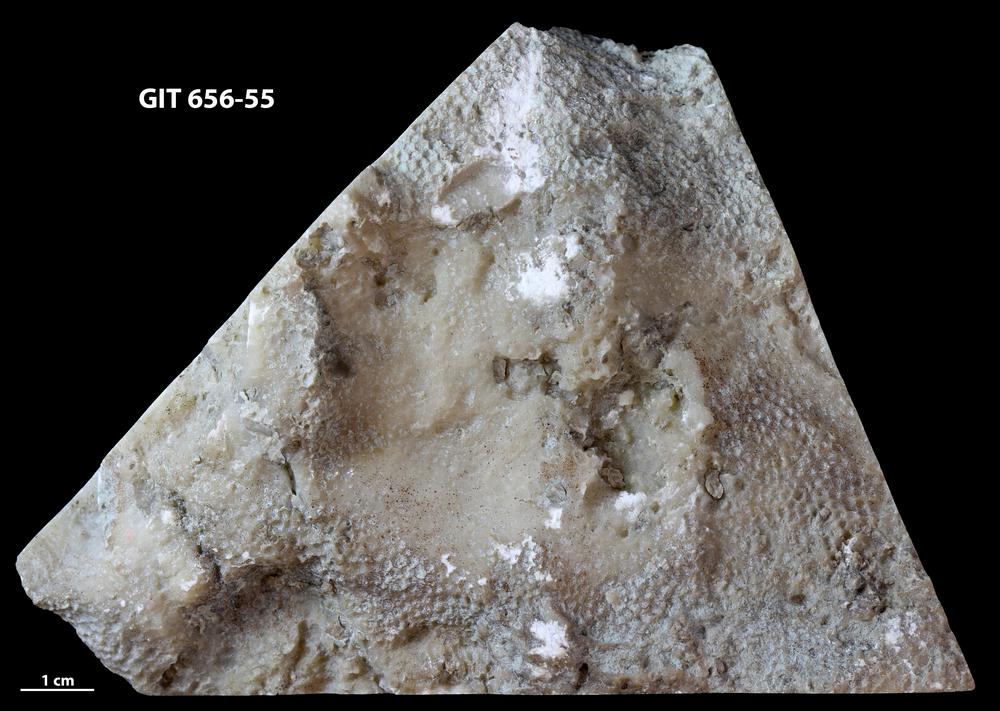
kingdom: Animalia
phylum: Cnidaria
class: Anthozoa
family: Favositidae
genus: Favosites
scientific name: Favosites
